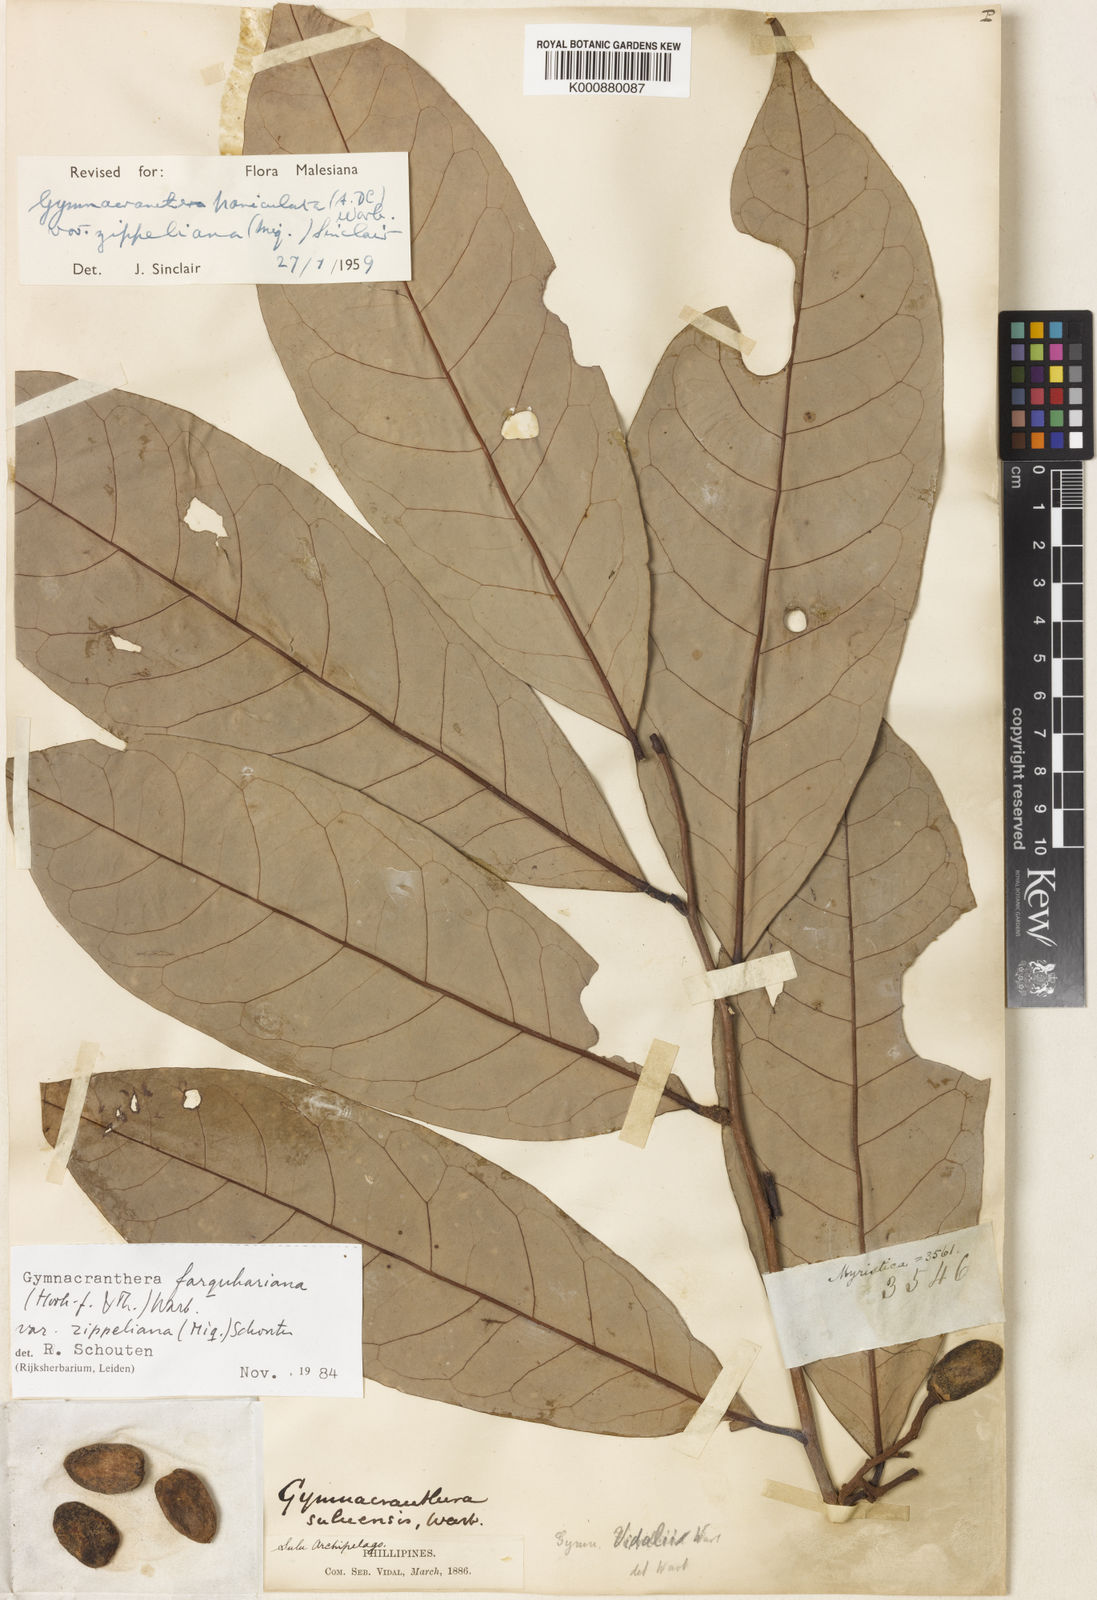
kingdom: Plantae
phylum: Tracheophyta
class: Magnoliopsida
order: Magnoliales
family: Myristicaceae
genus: Gymnacranthera
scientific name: Gymnacranthera farquhariana
